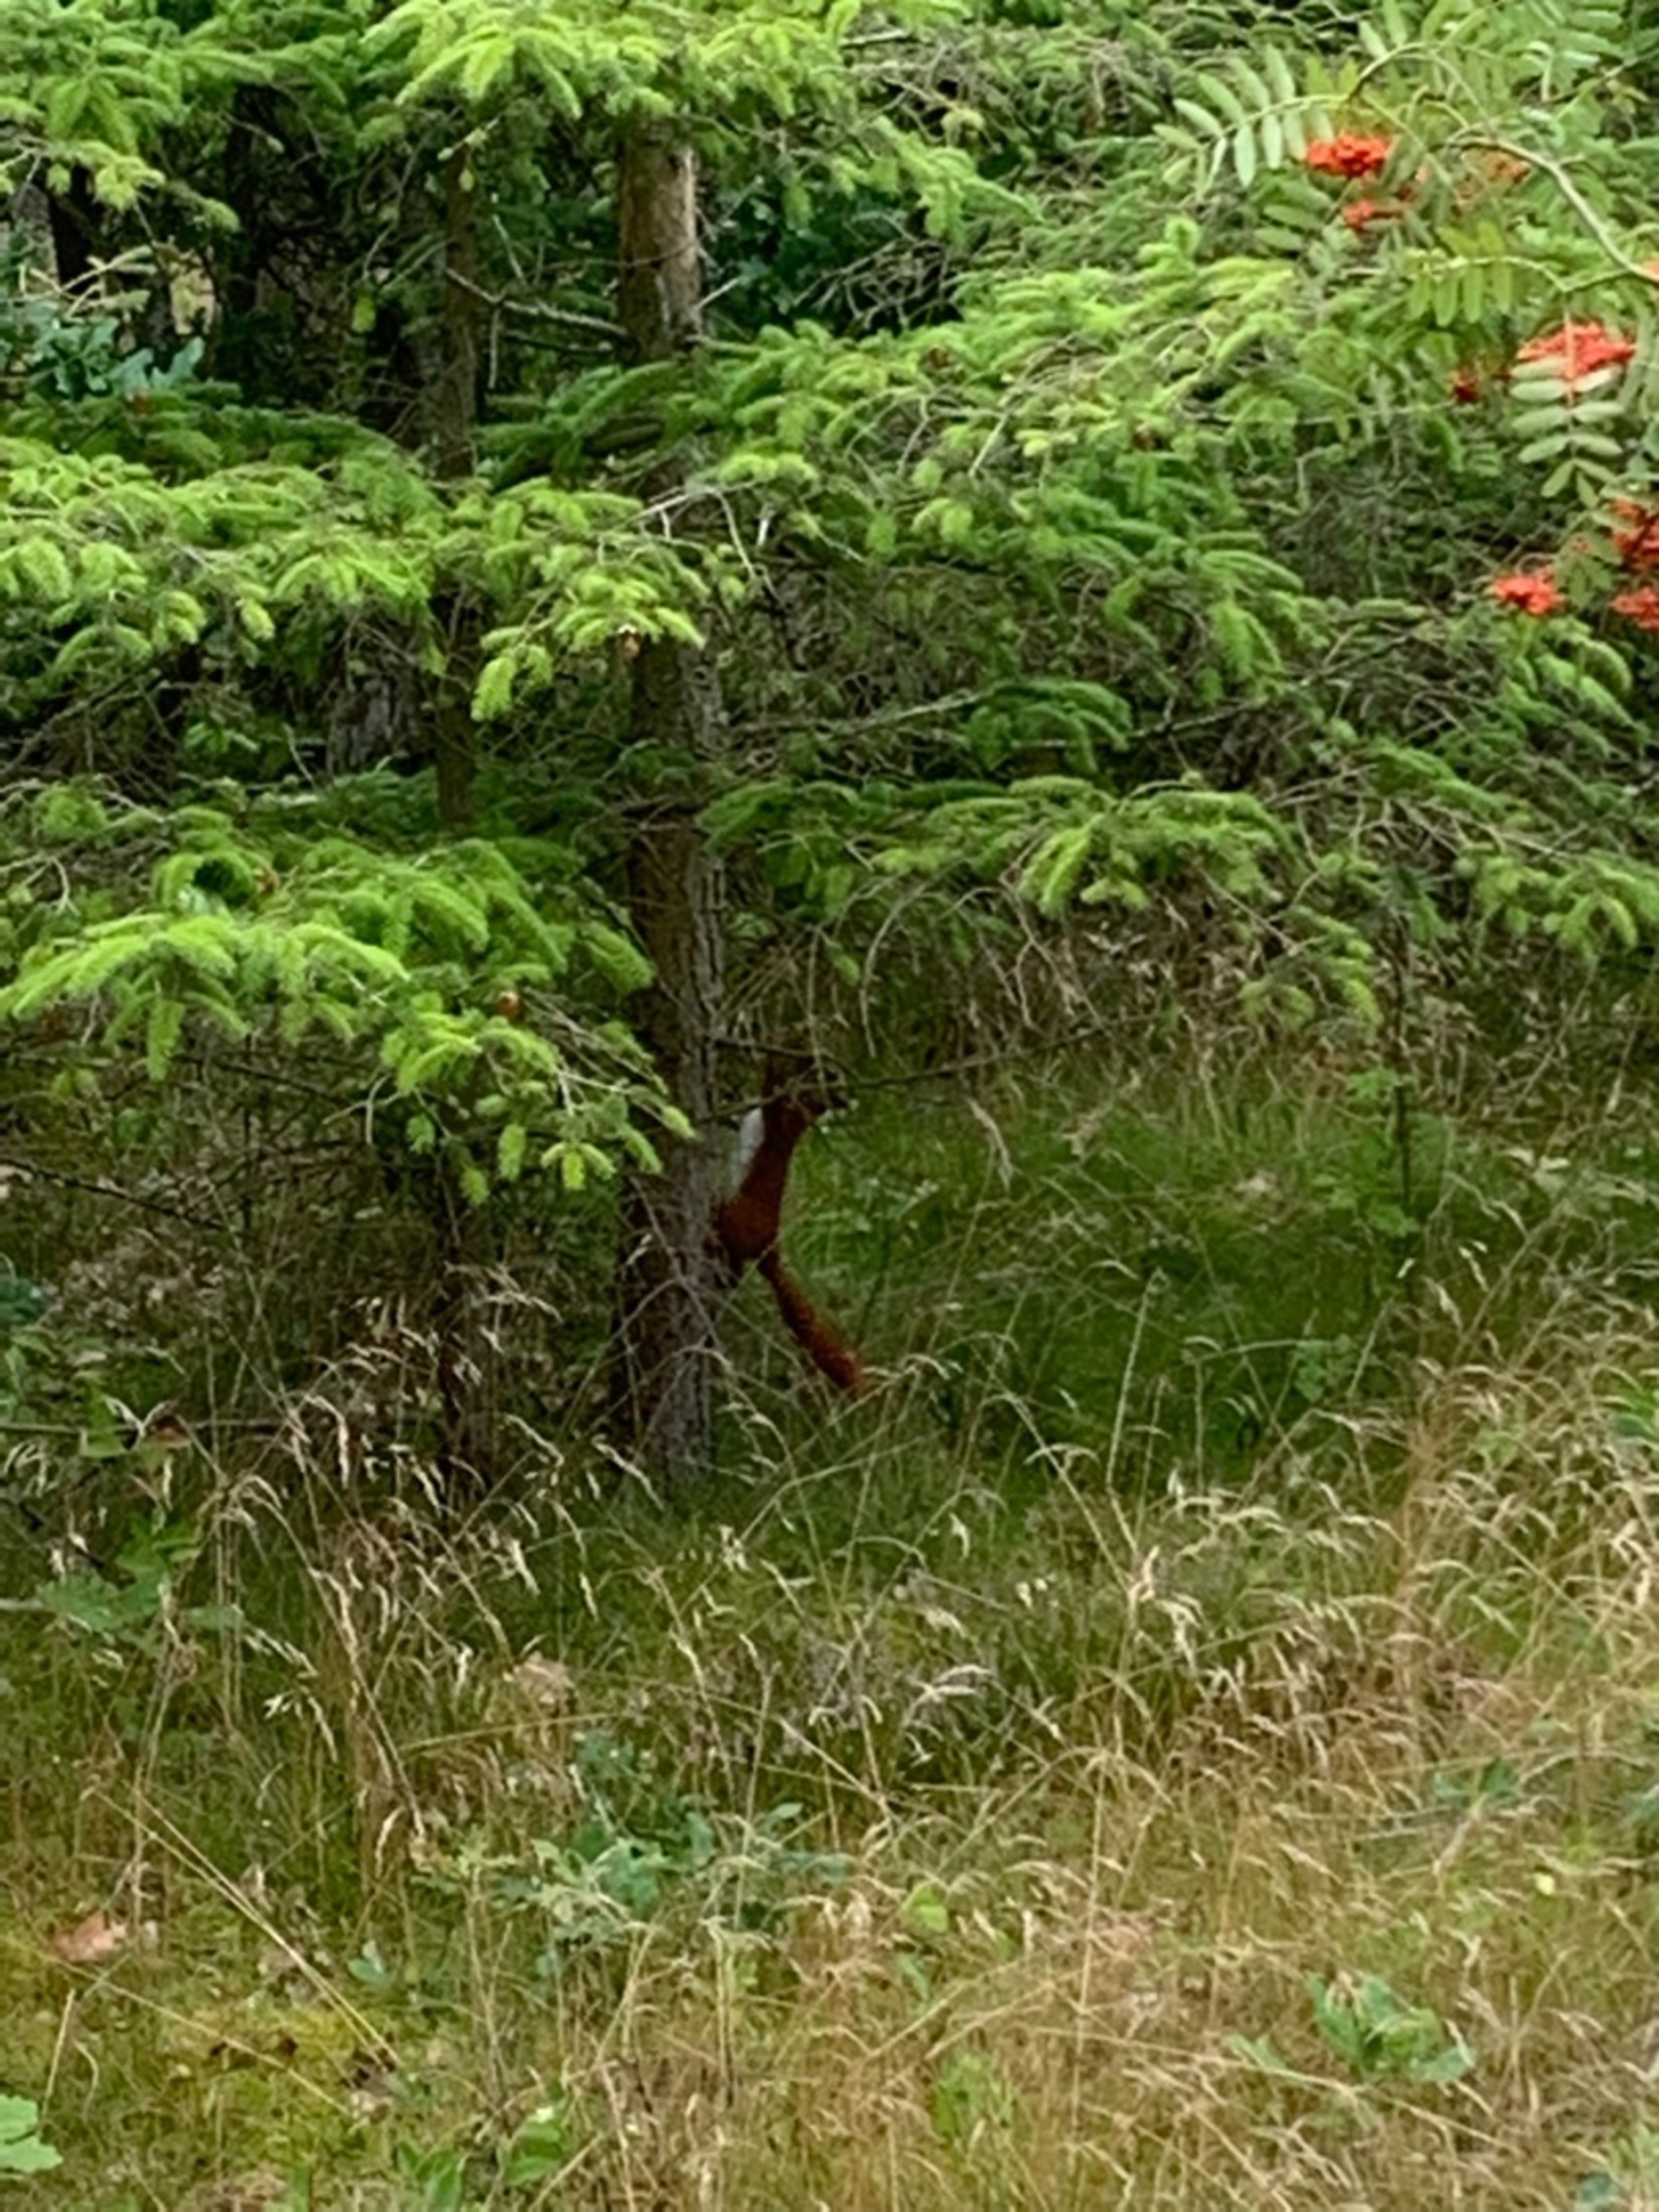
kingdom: Animalia
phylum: Chordata
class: Mammalia
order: Rodentia
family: Sciuridae
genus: Sciurus
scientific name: Sciurus vulgaris
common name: Egern
